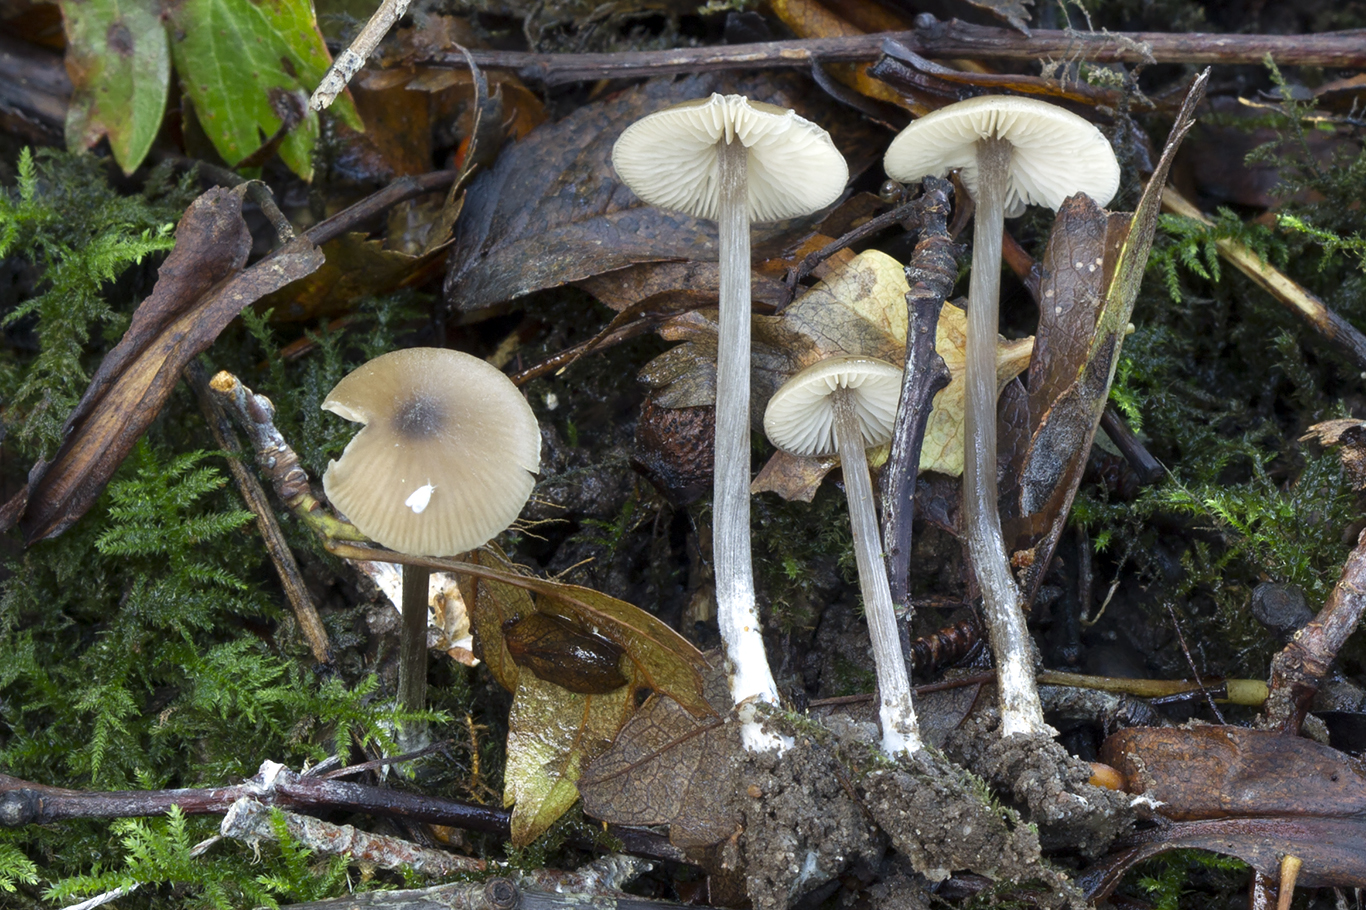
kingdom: Fungi
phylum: Basidiomycota
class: Agaricomycetes
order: Agaricales
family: Entolomataceae
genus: Entoloma
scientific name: Entoloma
